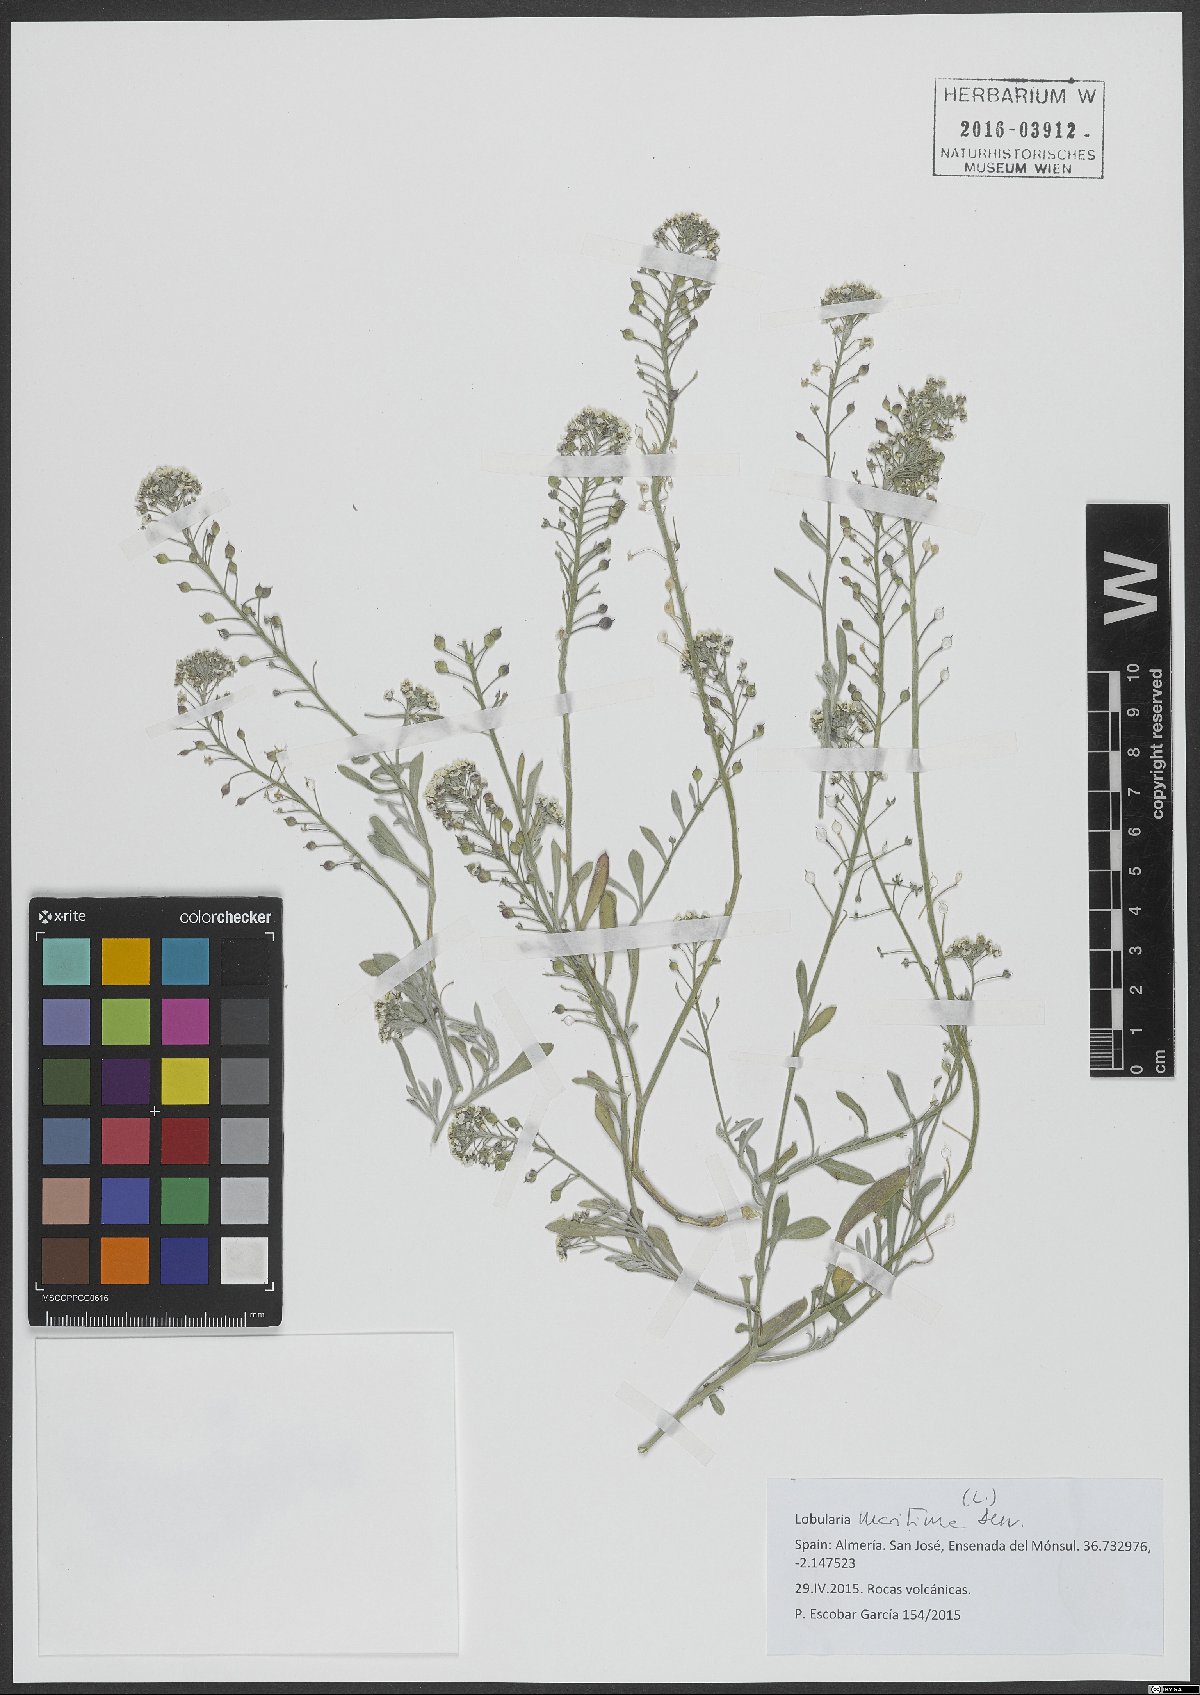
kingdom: Plantae
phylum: Tracheophyta
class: Magnoliopsida
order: Brassicales
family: Brassicaceae
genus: Lobularia
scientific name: Lobularia maritima
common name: Sweet alison
